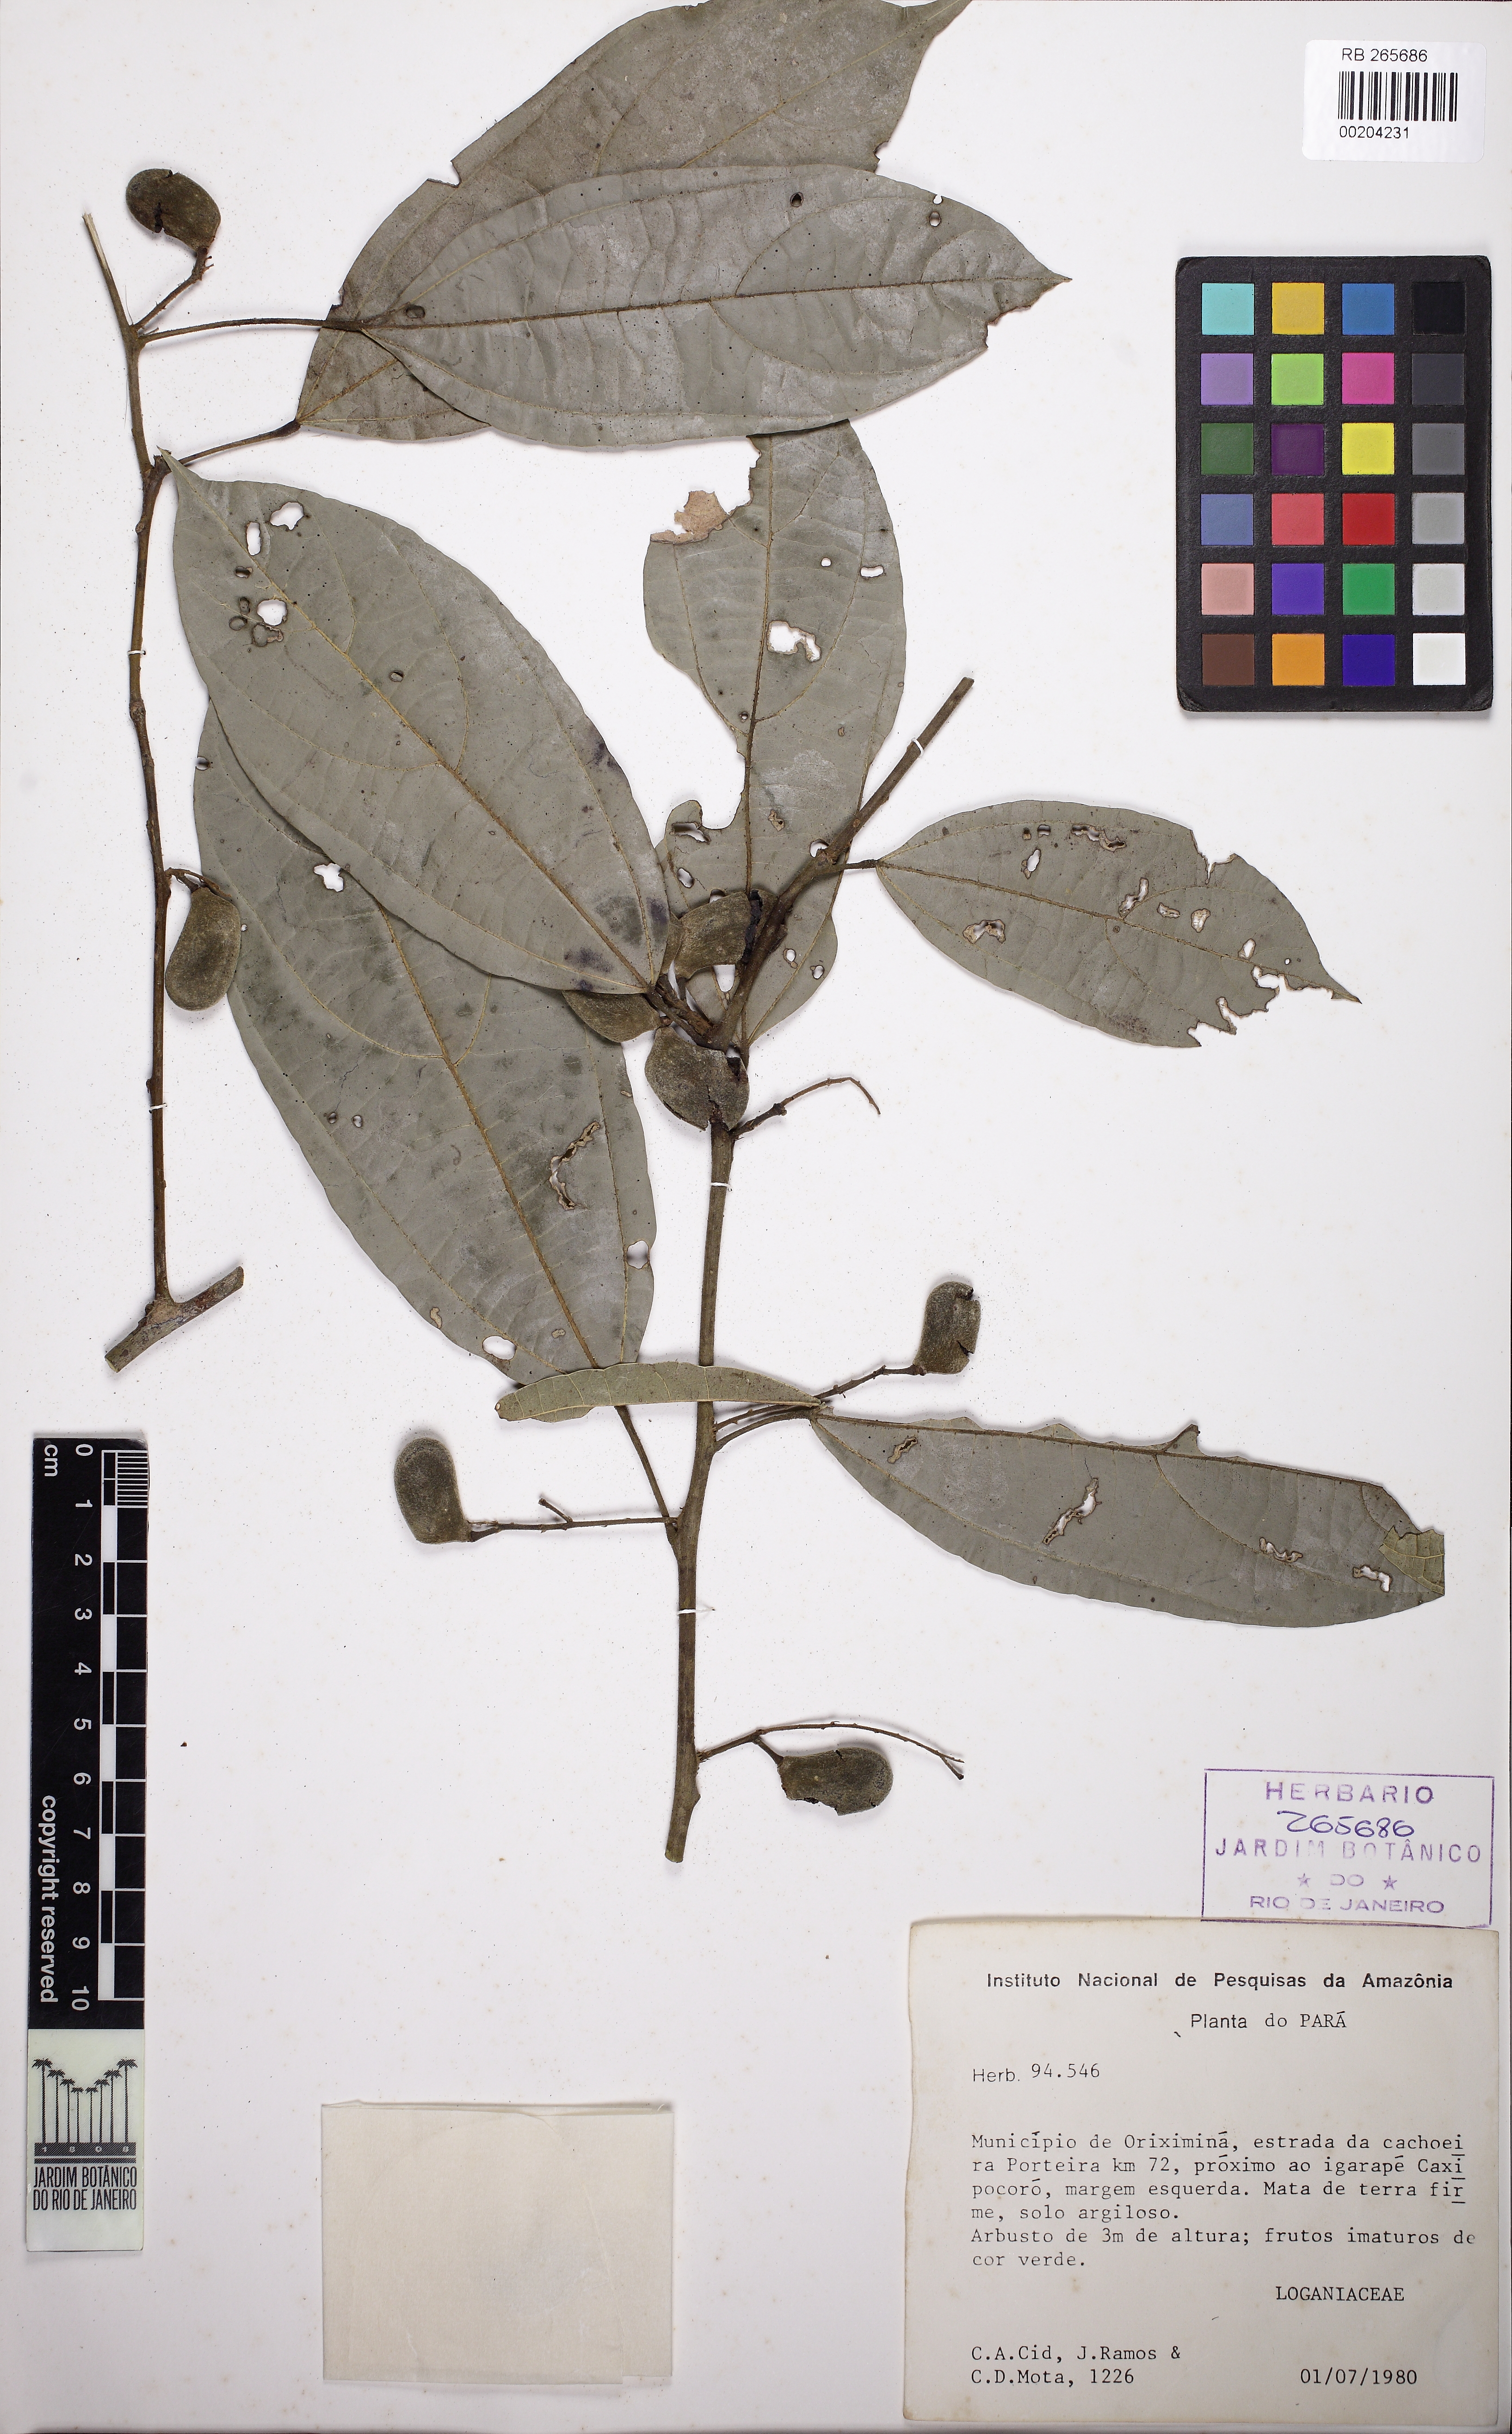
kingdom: Plantae
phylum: Tracheophyta
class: Magnoliopsida
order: Gentianales
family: Loganiaceae
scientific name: Loganiaceae
